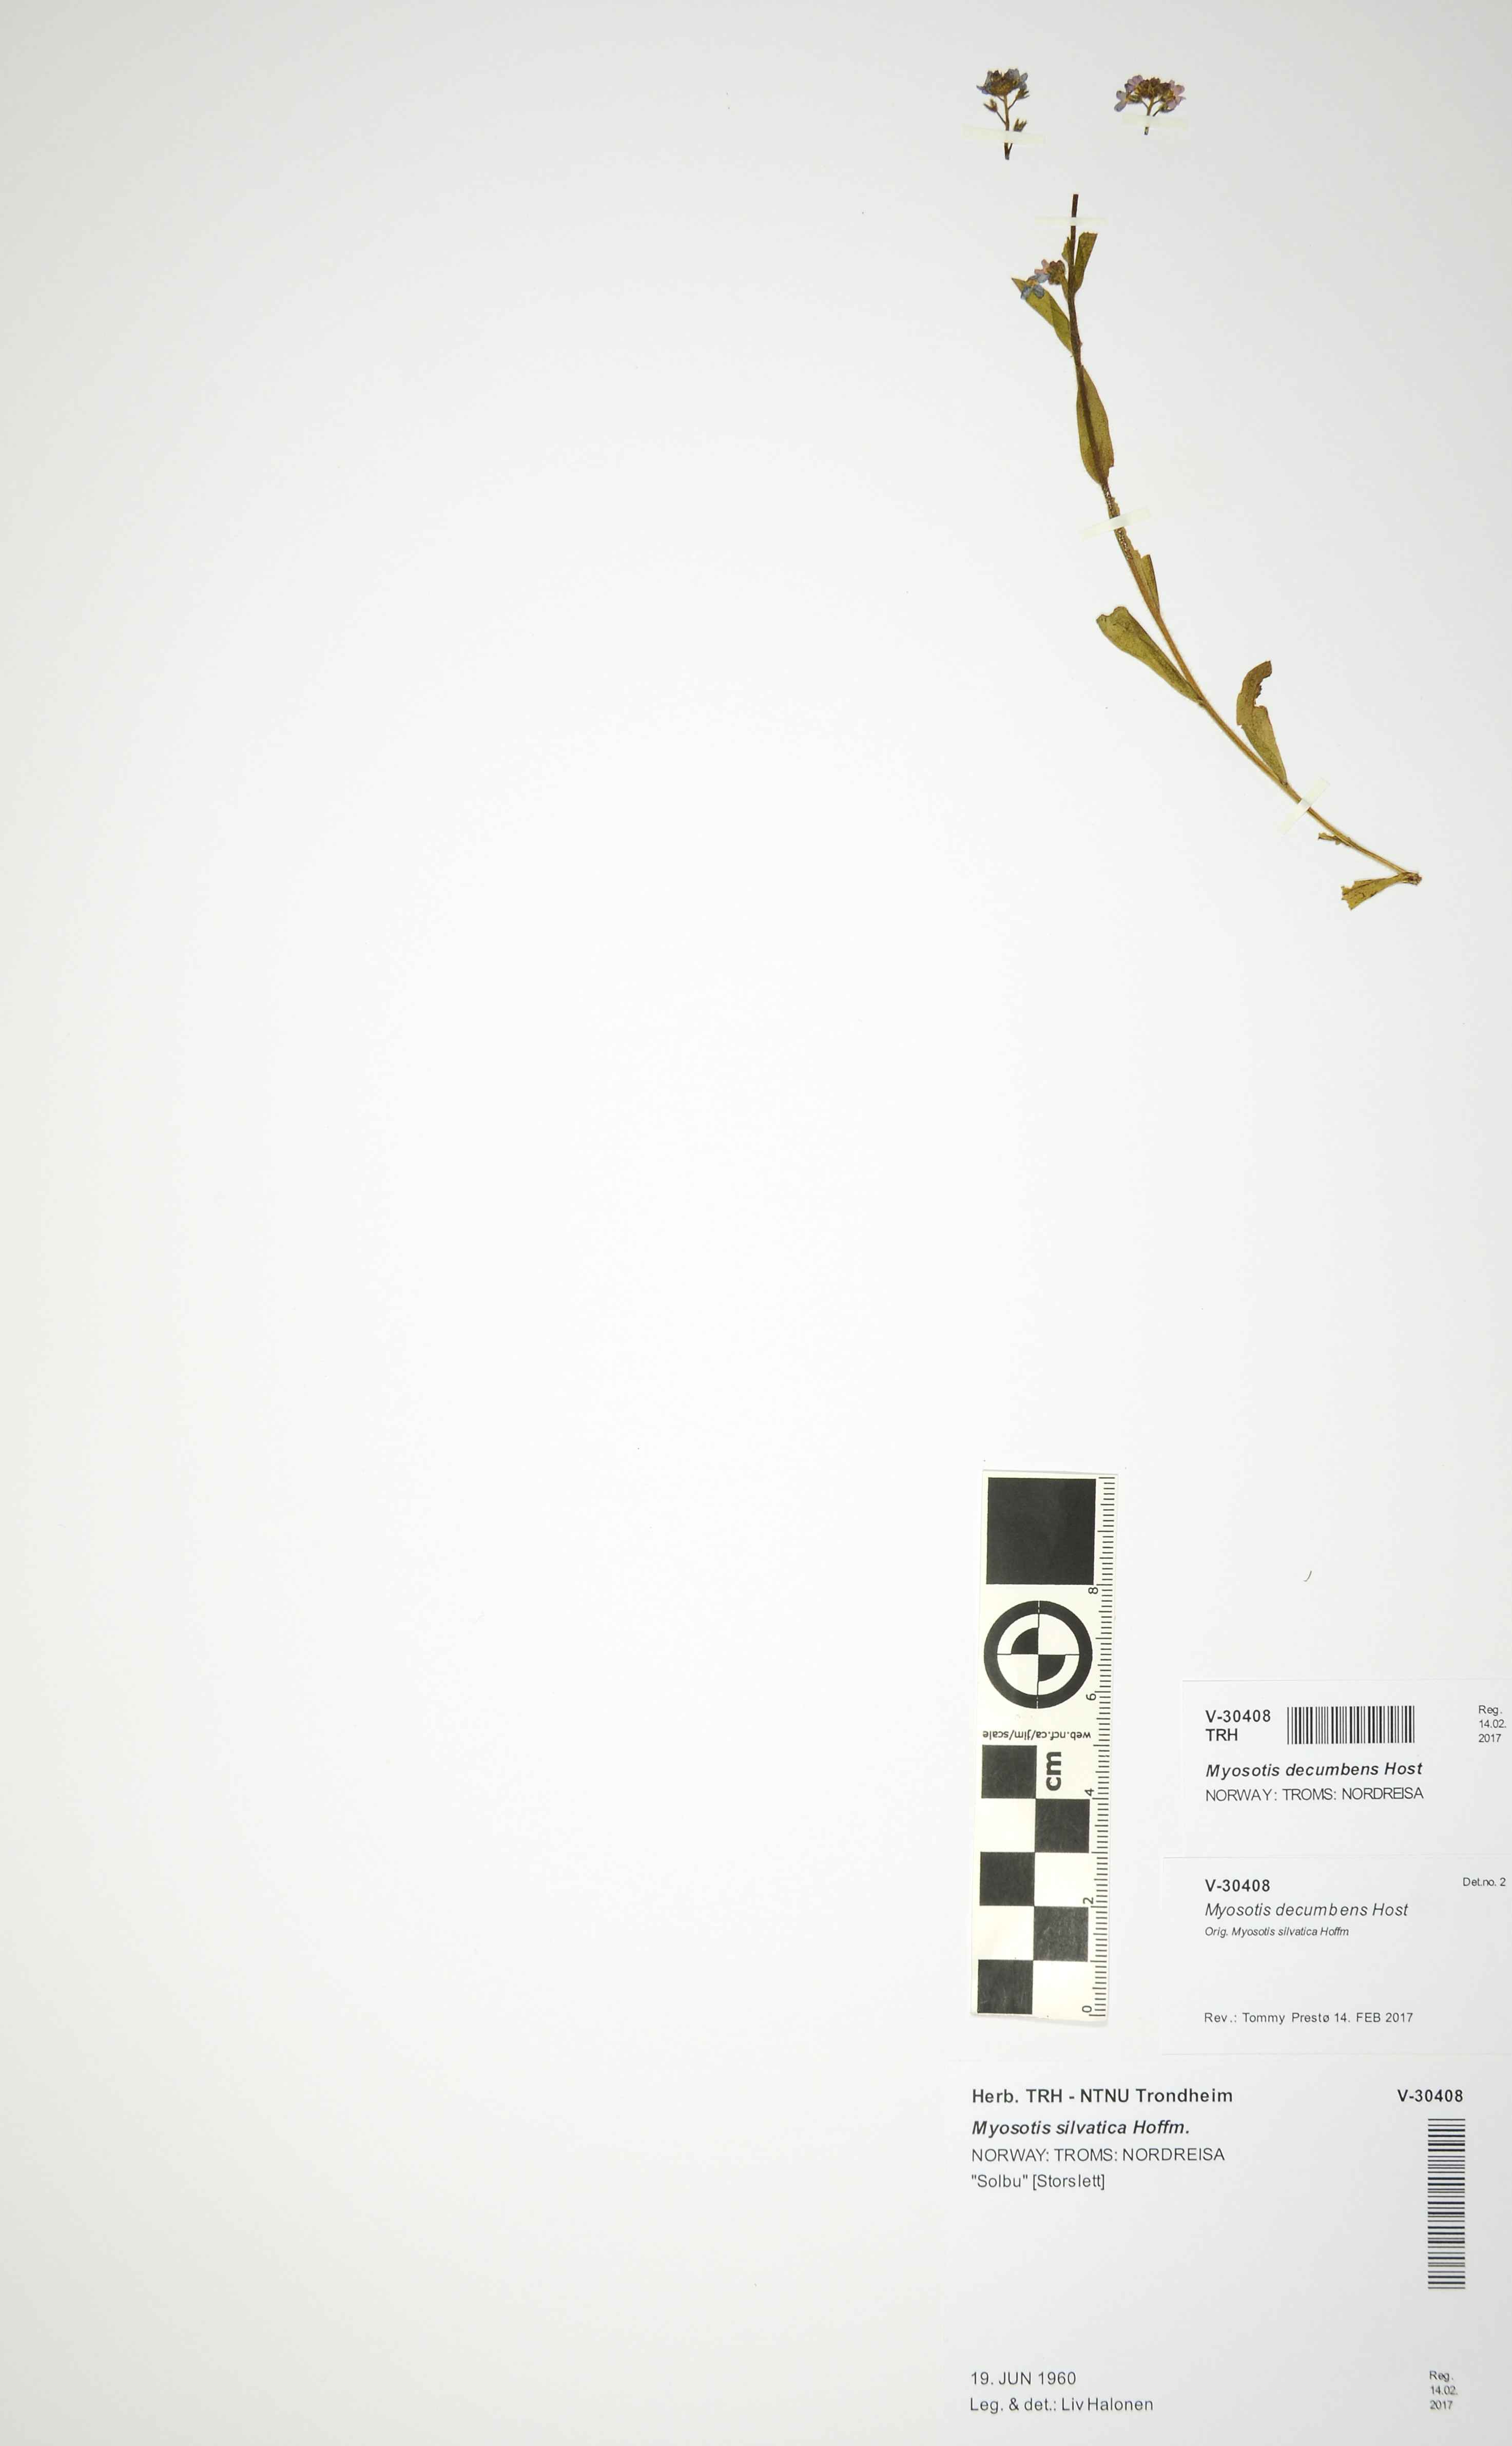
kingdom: Plantae
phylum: Tracheophyta
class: Magnoliopsida
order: Boraginales
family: Boraginaceae
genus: Myosotis
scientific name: Myosotis decumbens
